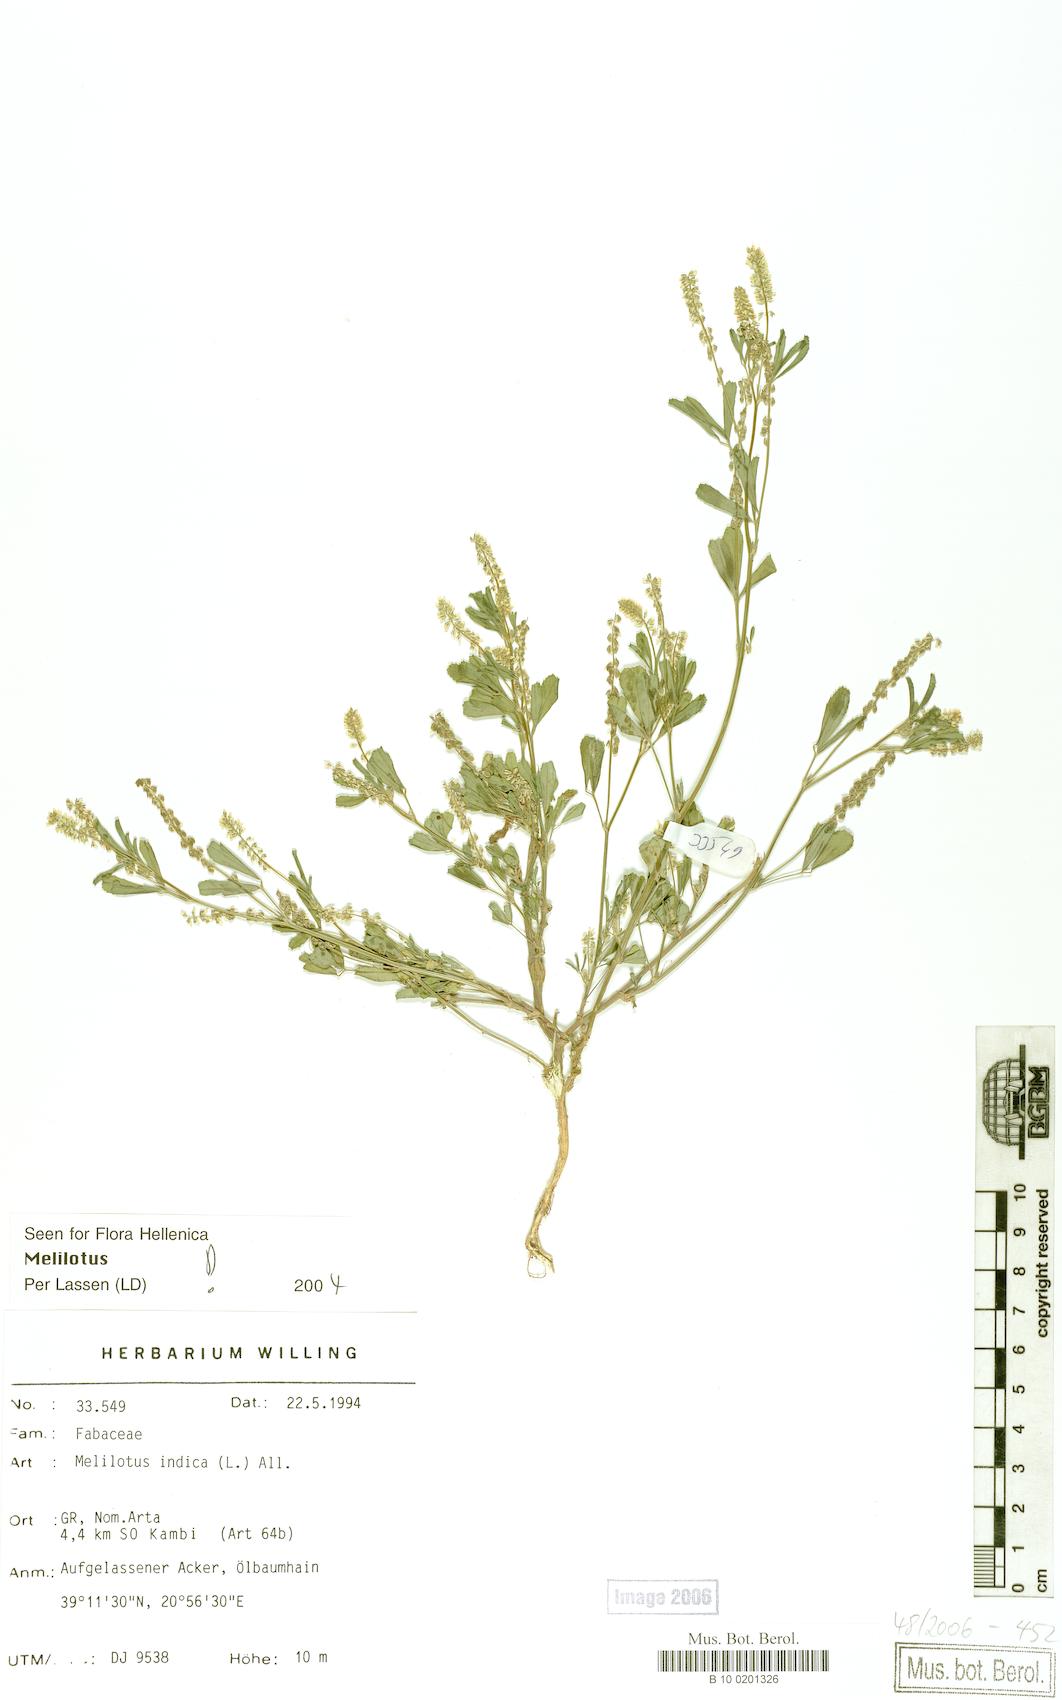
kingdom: Plantae
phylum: Tracheophyta
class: Magnoliopsida
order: Fabales
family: Fabaceae
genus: Melilotus
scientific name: Melilotus indicus
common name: Small melilot
